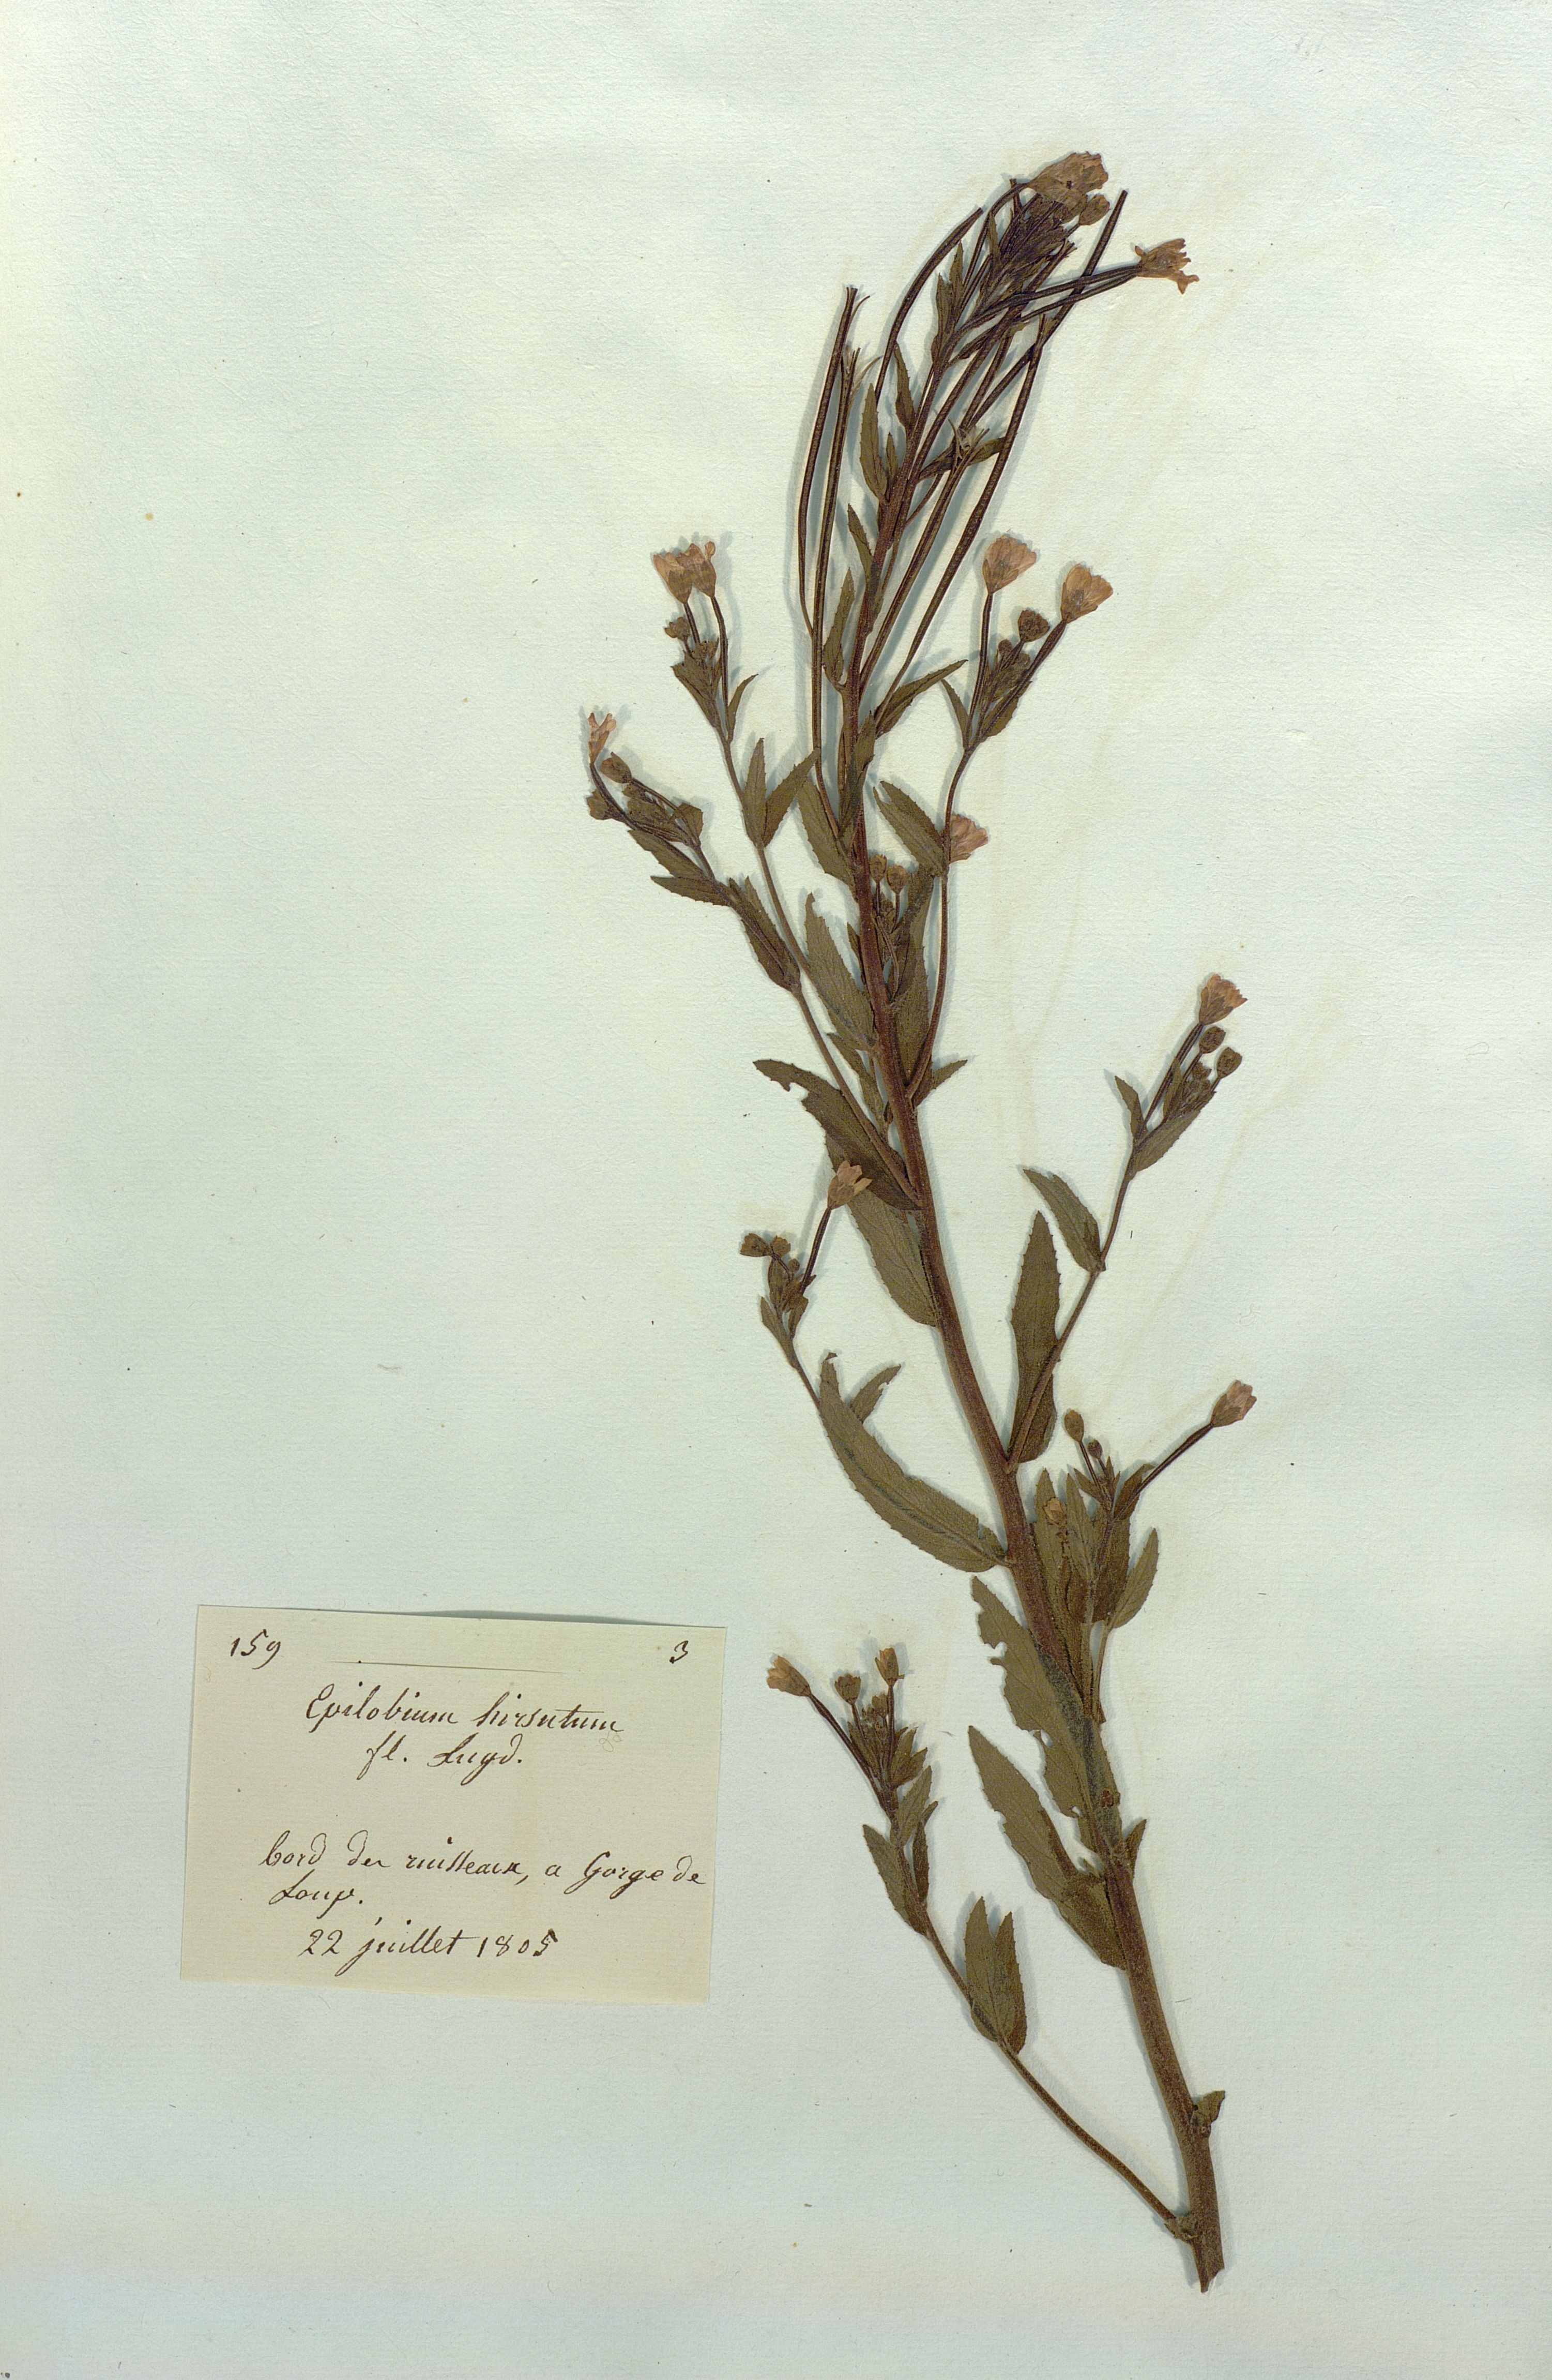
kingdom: Plantae
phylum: Tracheophyta
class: Magnoliopsida
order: Myrtales
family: Onagraceae
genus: Epilobium
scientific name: Epilobium hirsutum
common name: Great willowherb
